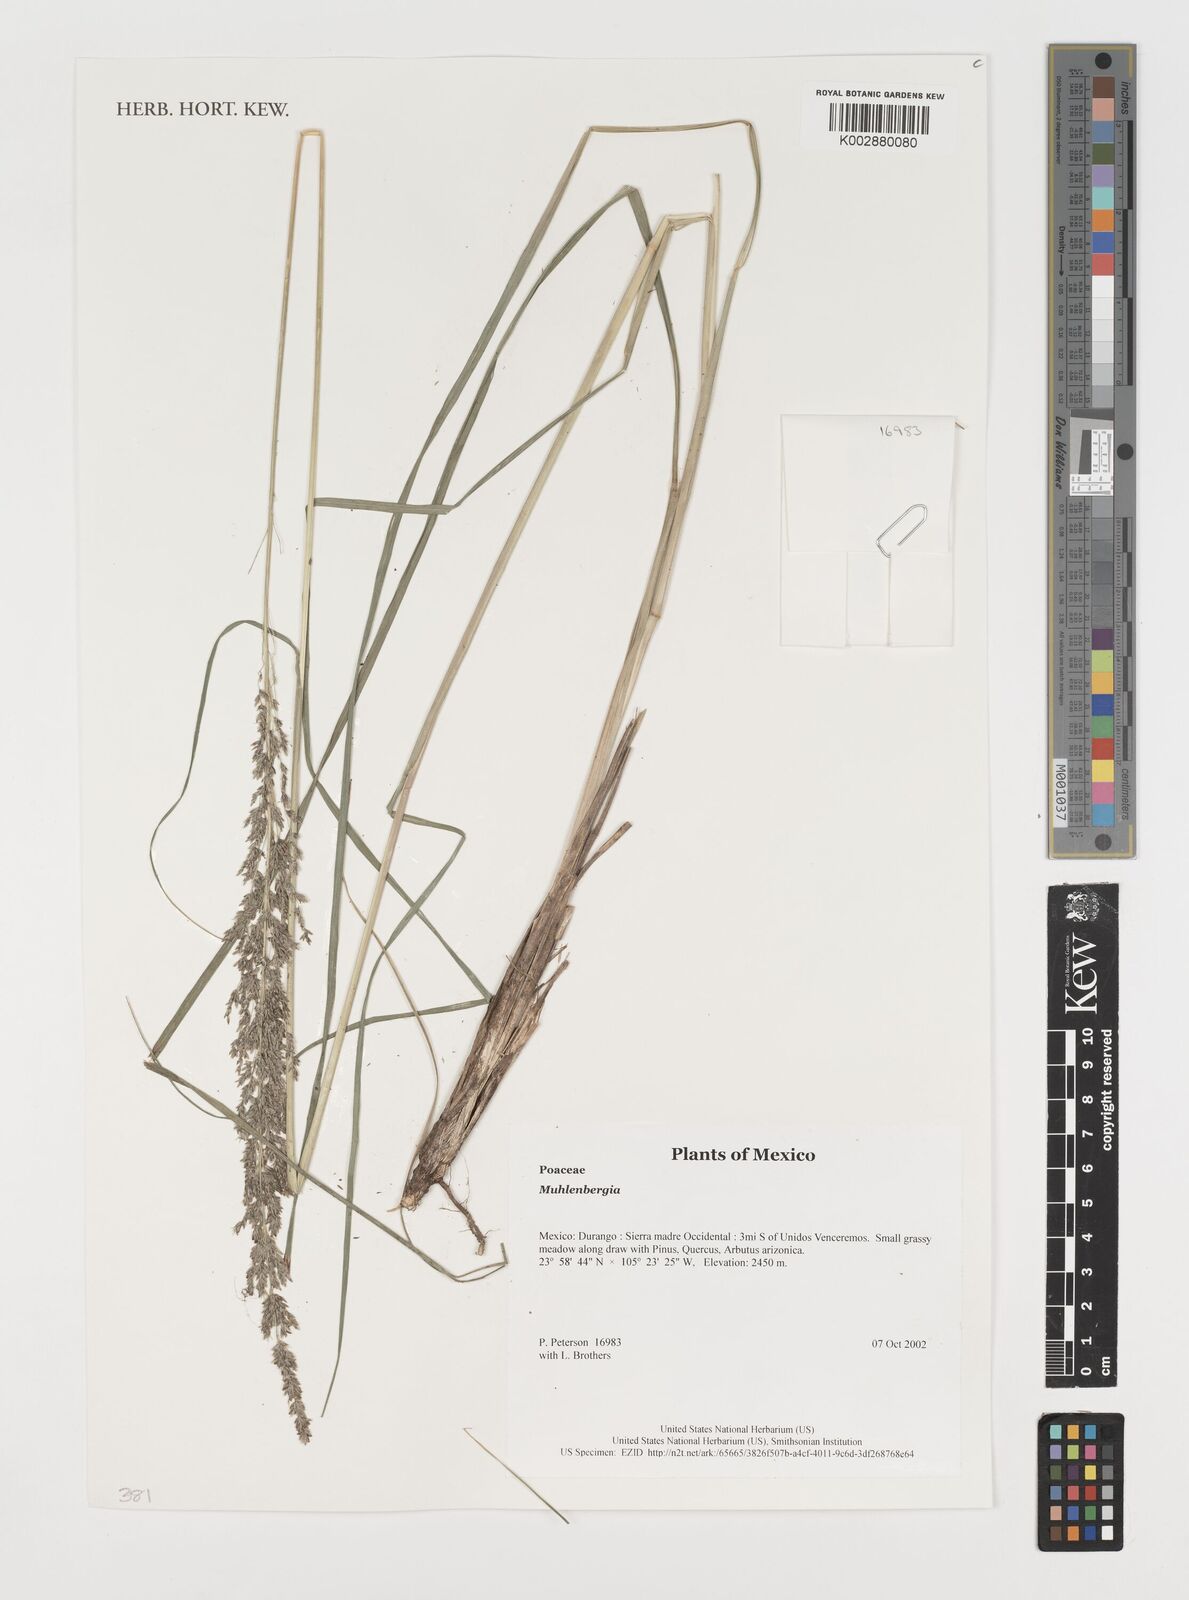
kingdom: Plantae
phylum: Tracheophyta
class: Liliopsida
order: Poales
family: Poaceae
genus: Muhlenbergia
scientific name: Muhlenbergia
